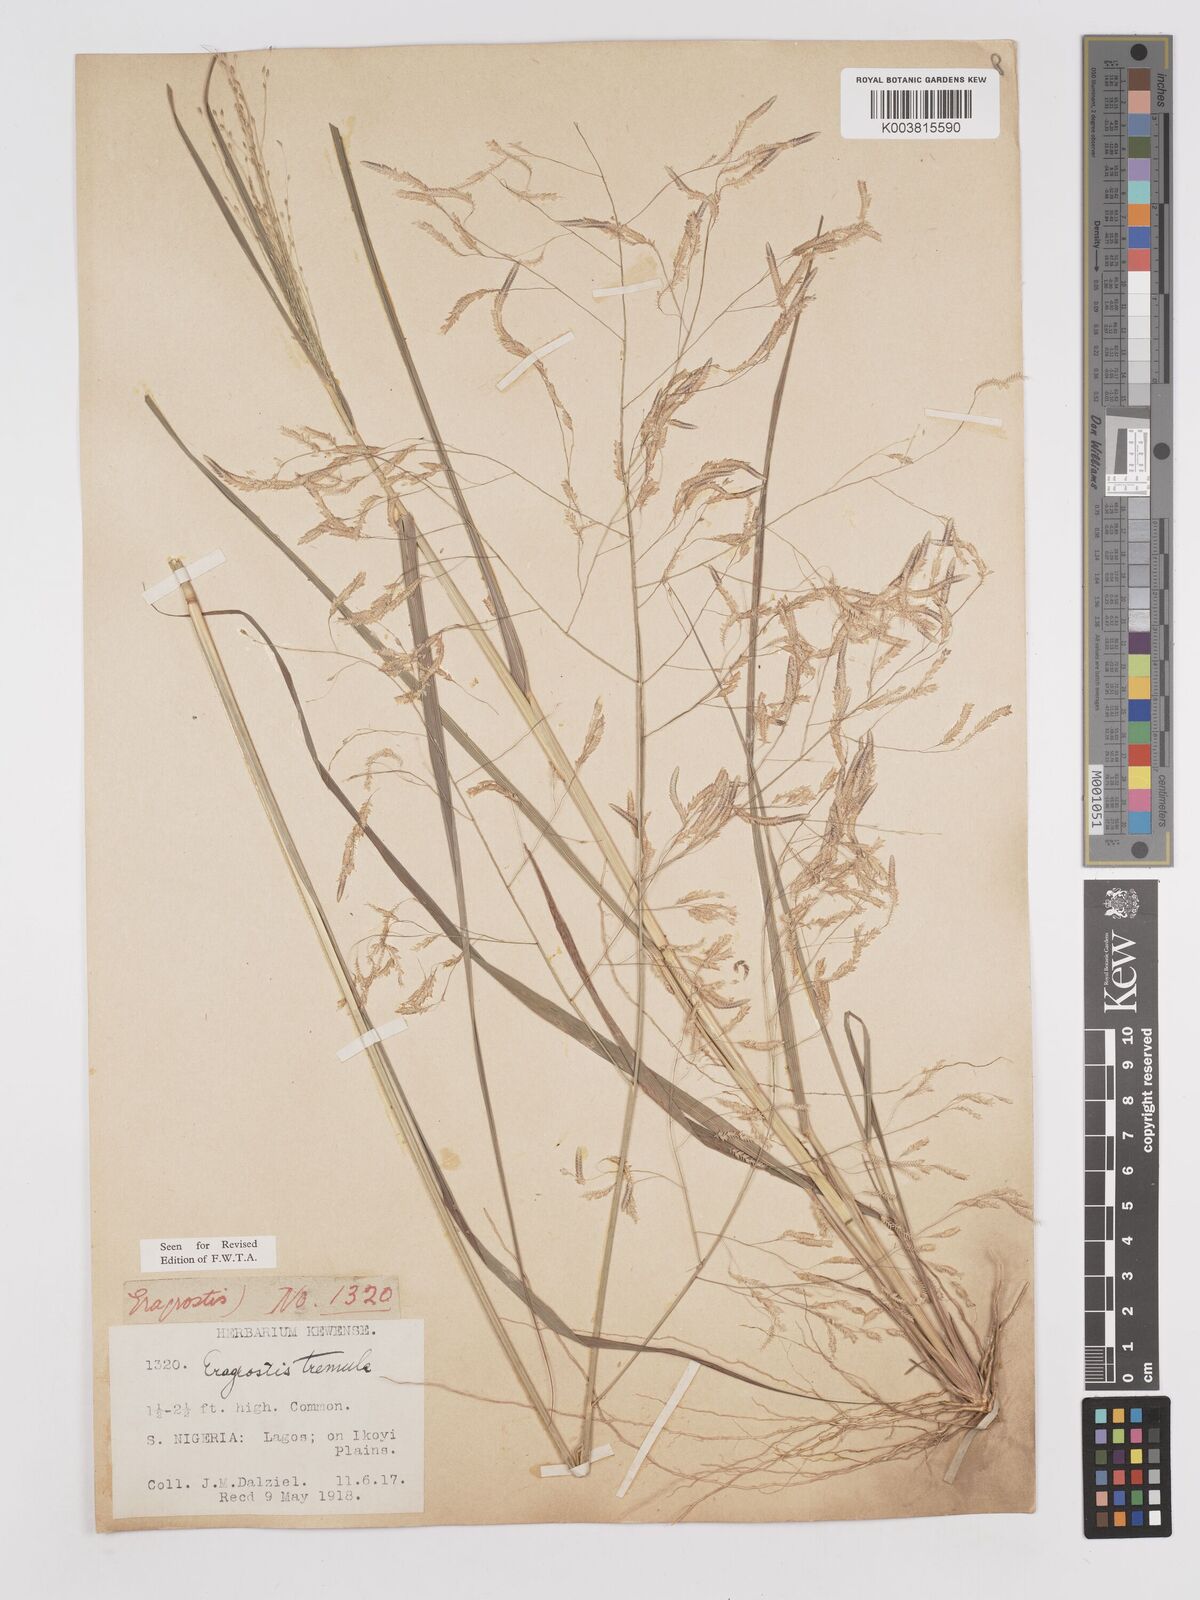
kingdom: Plantae
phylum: Tracheophyta
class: Liliopsida
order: Poales
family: Poaceae
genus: Eragrostis
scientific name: Eragrostis tremula
